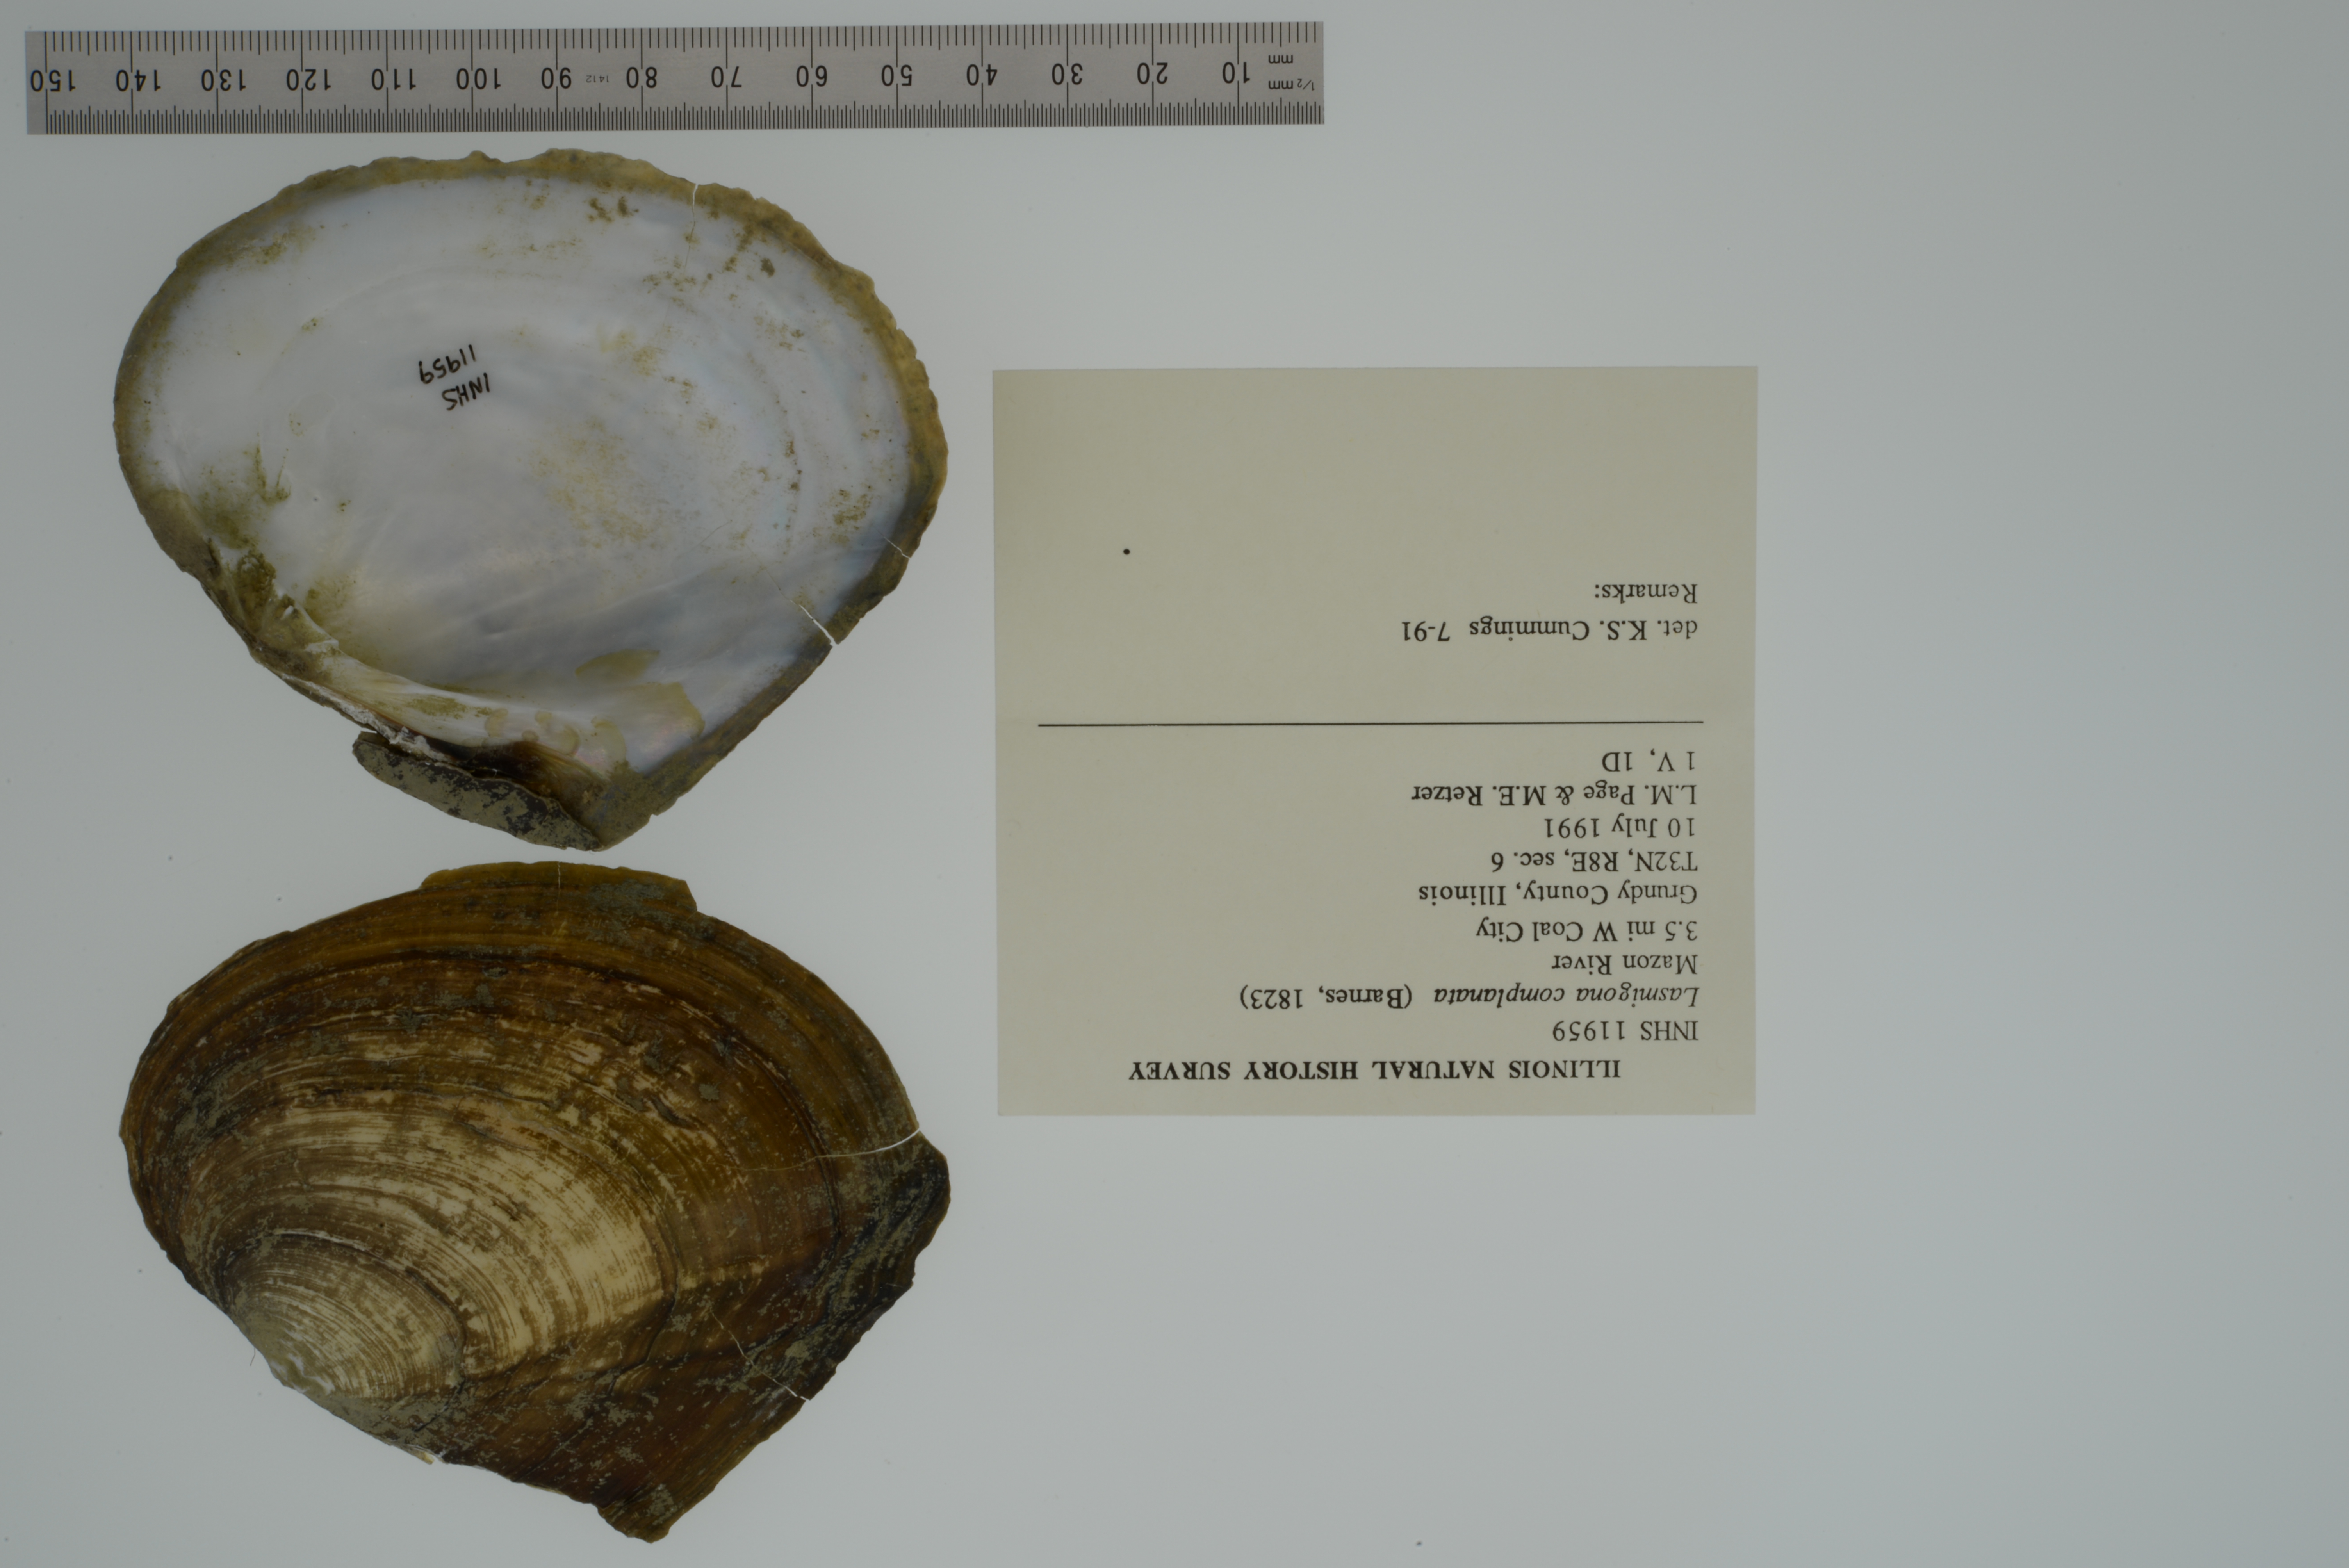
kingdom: Animalia
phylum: Mollusca
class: Bivalvia
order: Unionida
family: Unionidae
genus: Lasmigona
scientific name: Lasmigona complanata
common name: White heelsplitter
